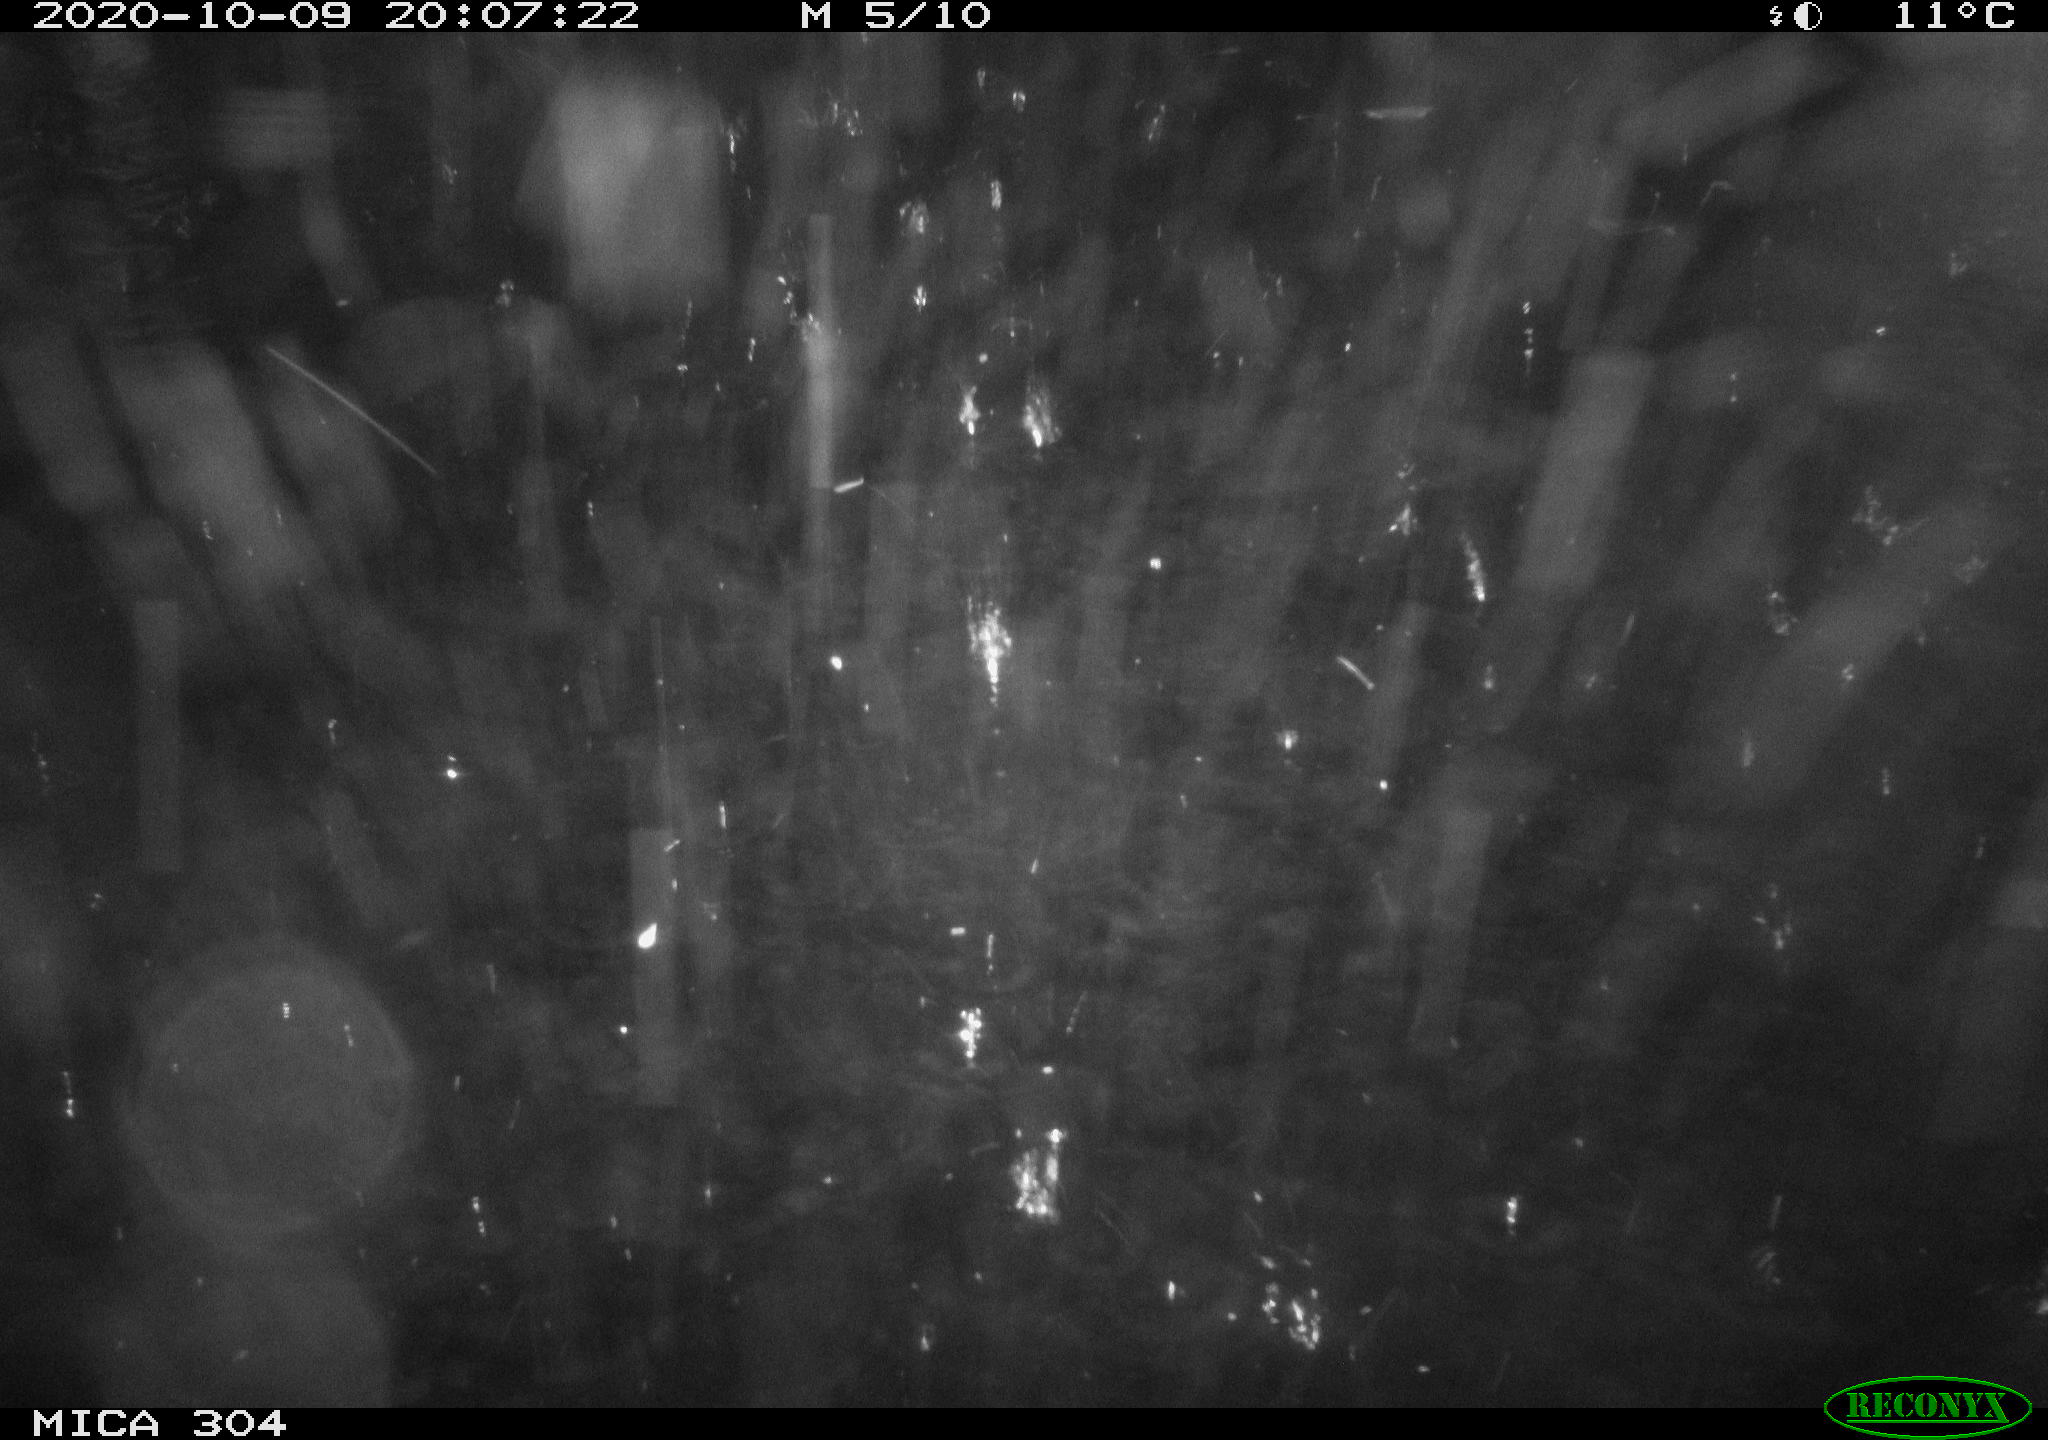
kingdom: Animalia
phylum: Chordata
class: Mammalia
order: Rodentia
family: Cricetidae
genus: Ondatra
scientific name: Ondatra zibethicus
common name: Muskrat
